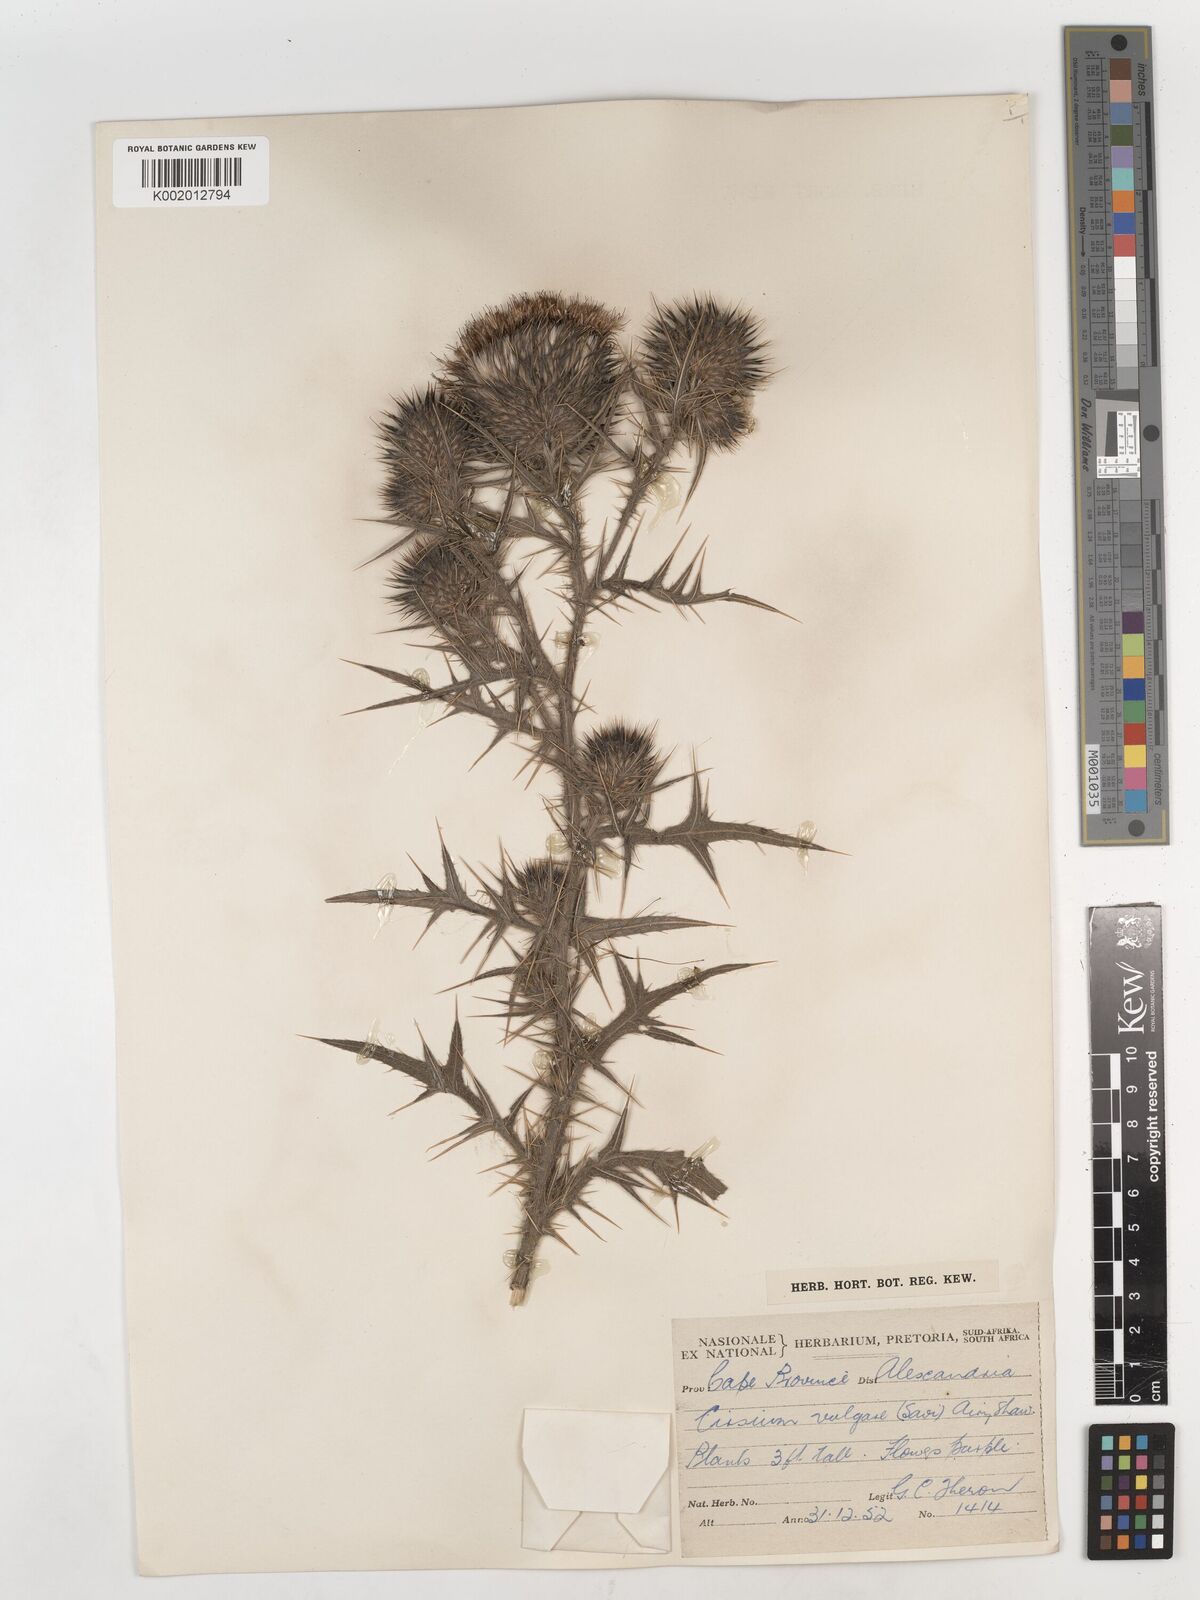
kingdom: Plantae
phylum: Tracheophyta
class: Magnoliopsida
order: Asterales
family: Asteraceae
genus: Cirsium
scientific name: Cirsium vulgare
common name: Bull thistle
